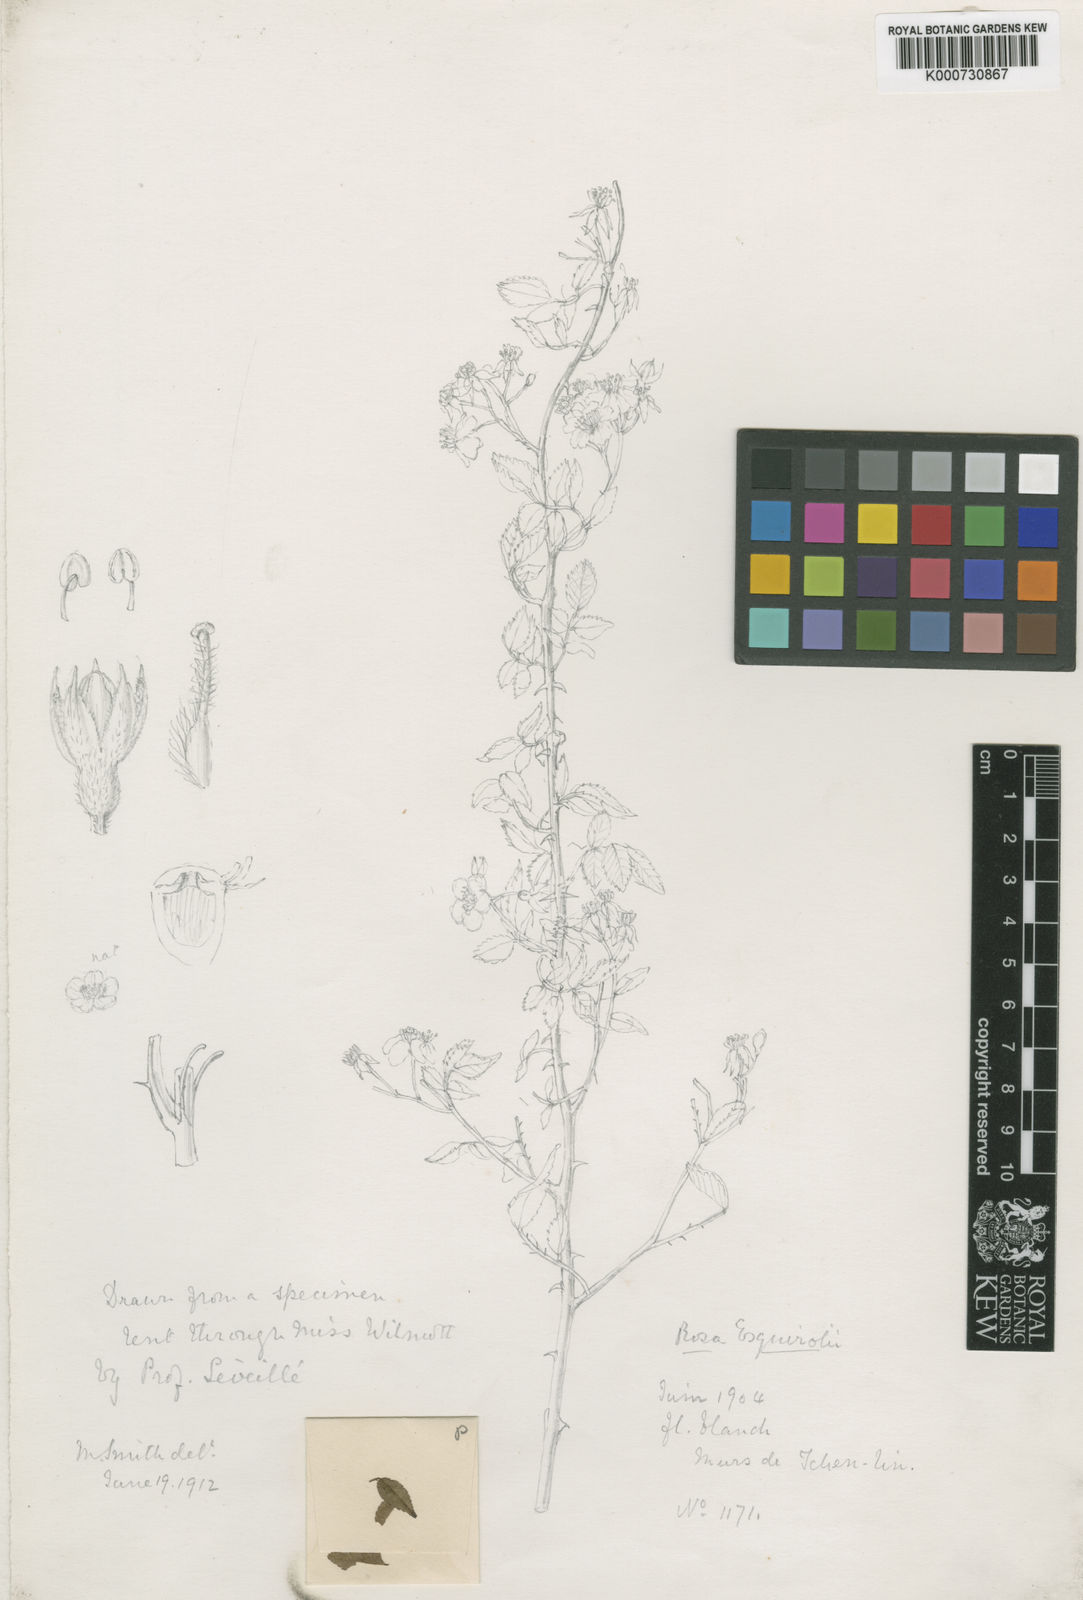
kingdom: Plantae
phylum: Tracheophyta
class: Magnoliopsida
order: Rosales
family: Rosaceae
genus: Rosa
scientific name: Rosa indica
